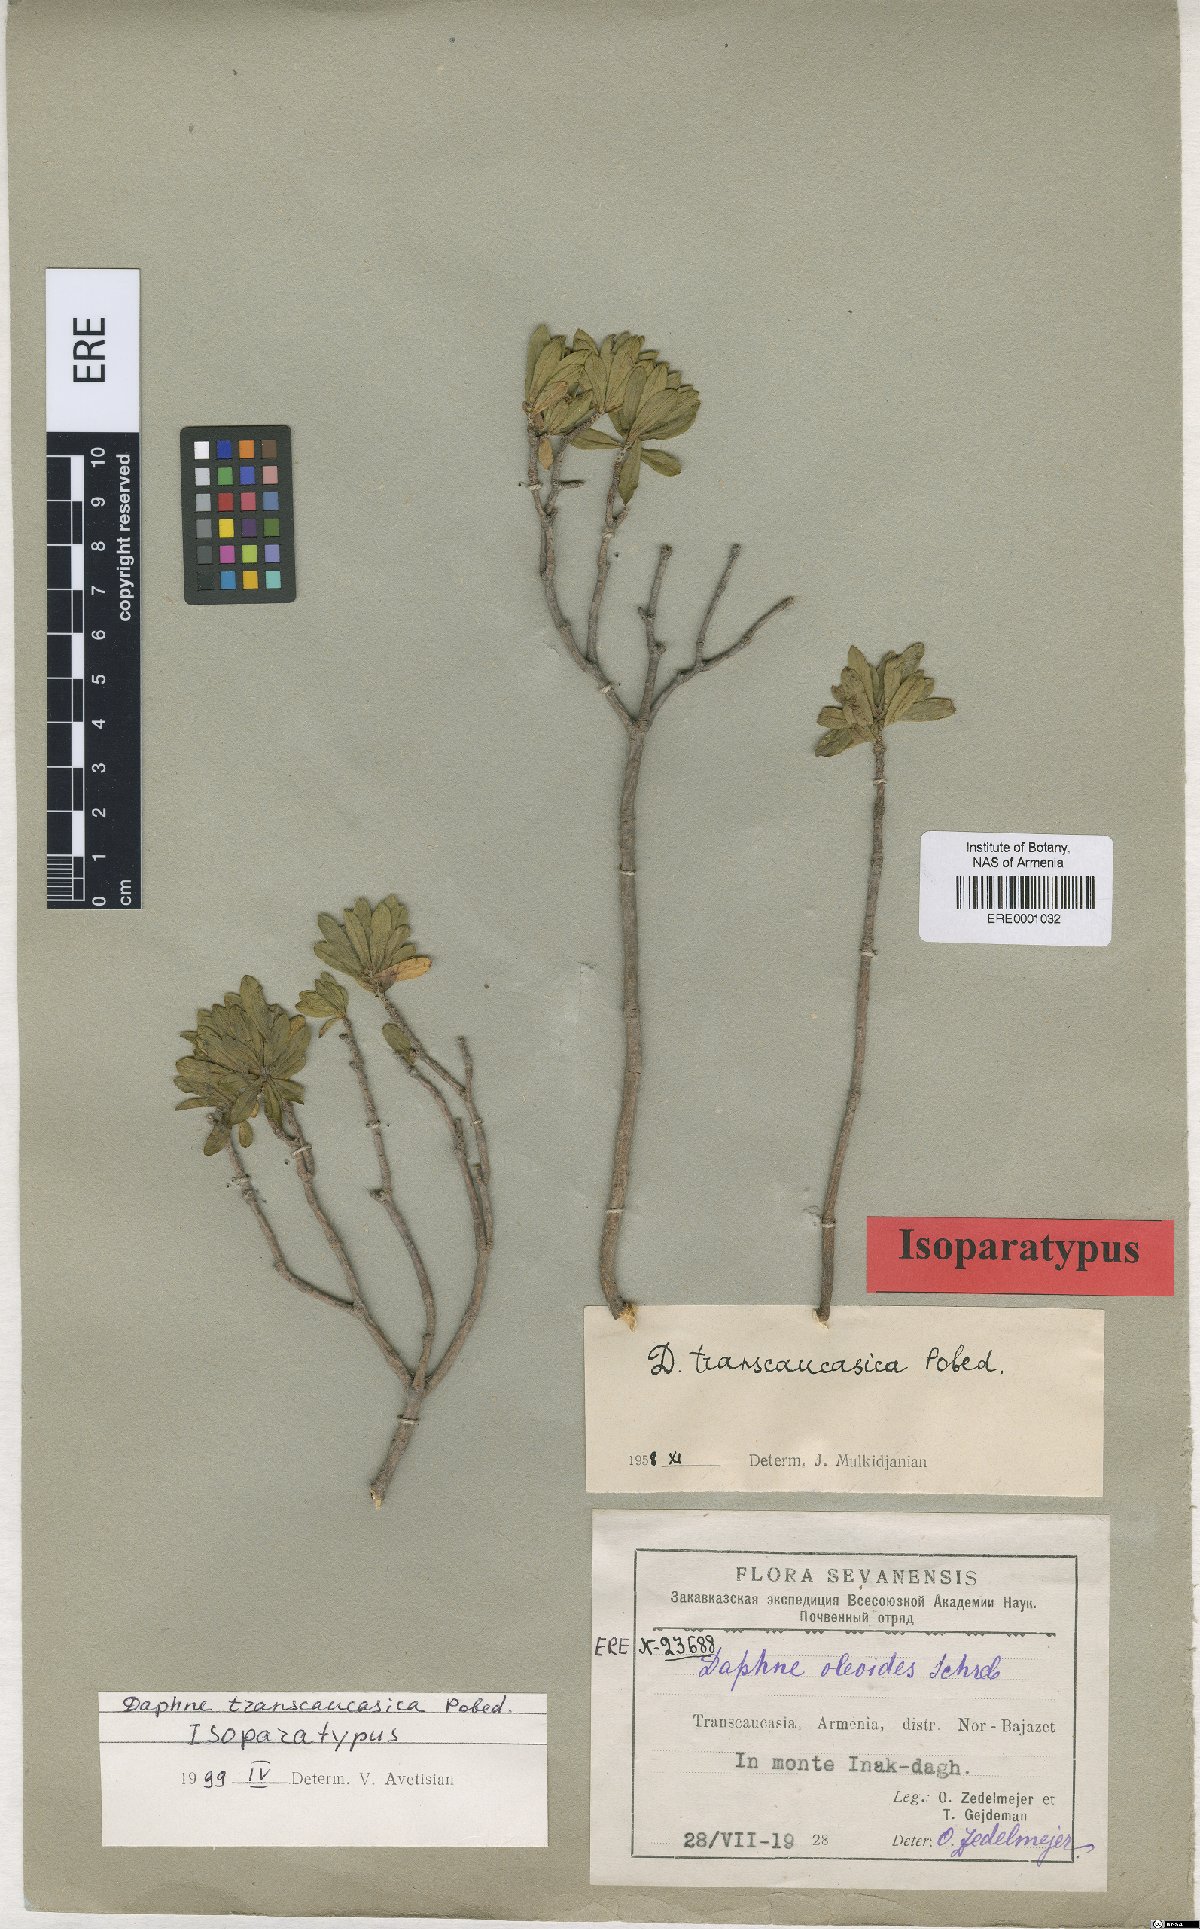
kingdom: Plantae
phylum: Tracheophyta
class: Magnoliopsida
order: Malvales
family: Thymelaeaceae
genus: Daphne
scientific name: Daphne kurdica
